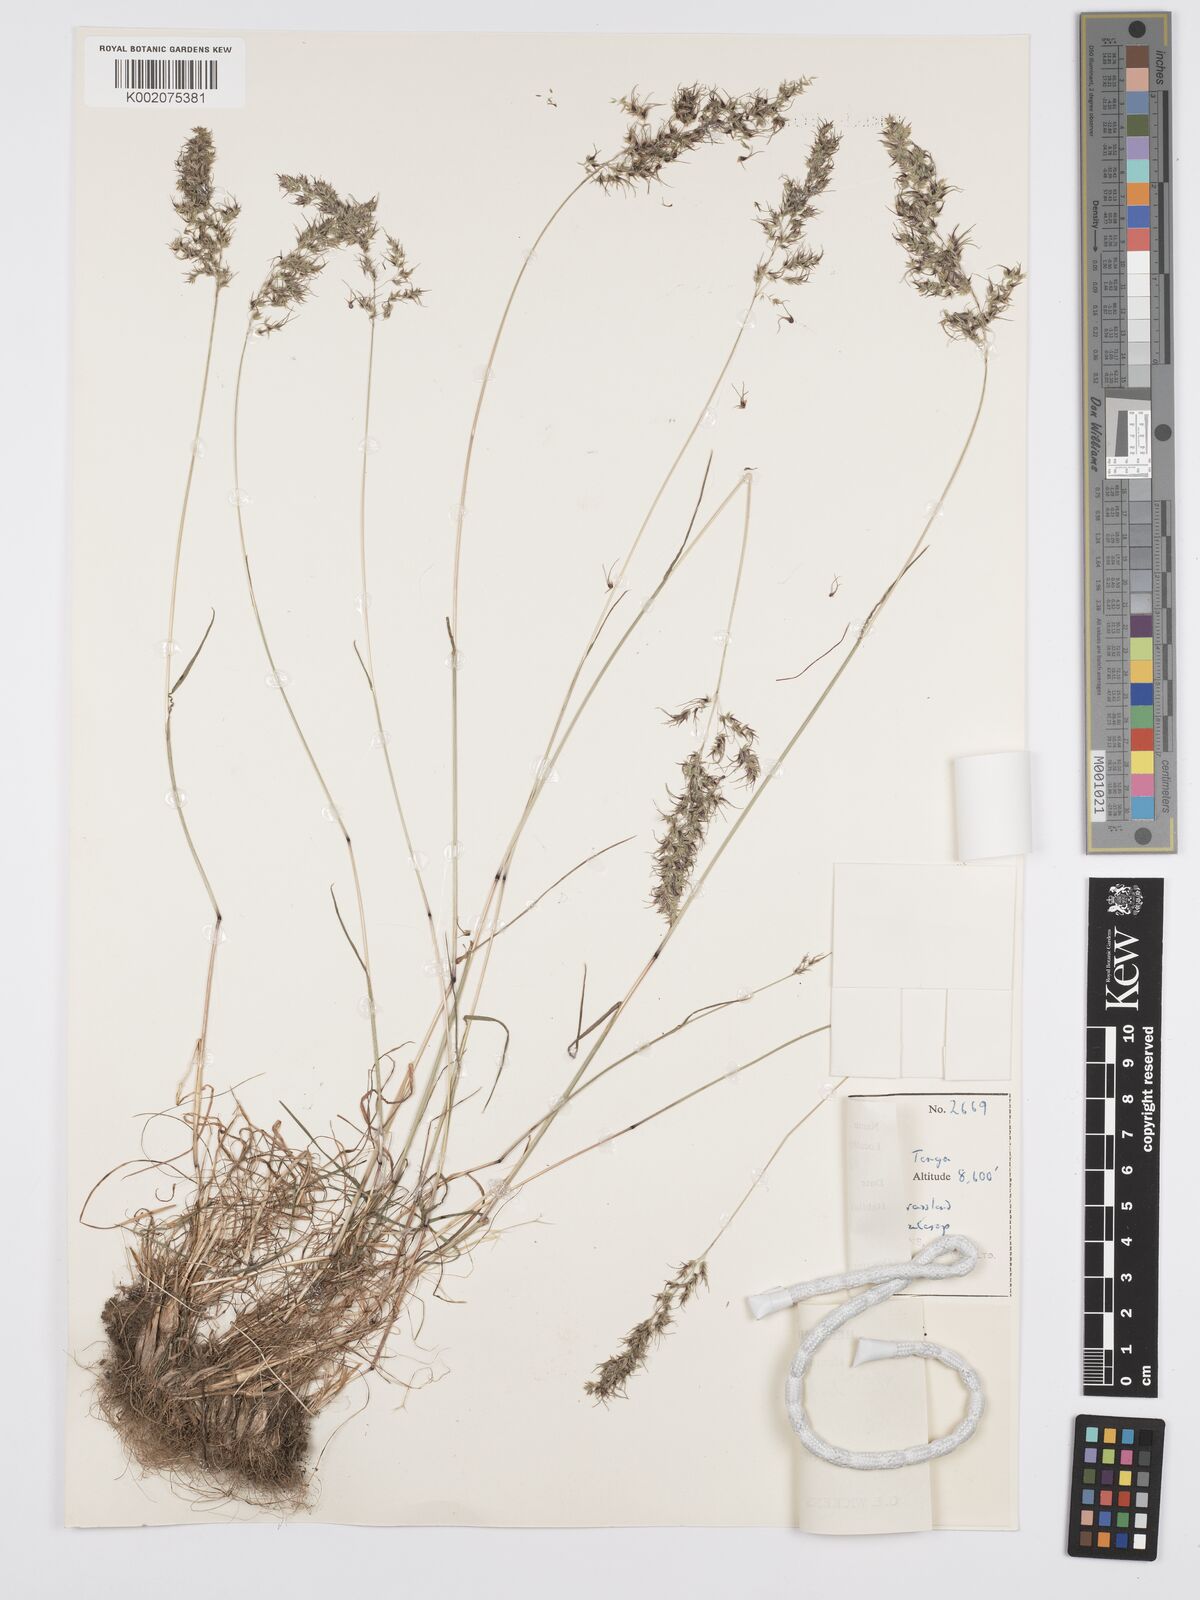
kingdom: Plantae
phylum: Tracheophyta
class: Liliopsida
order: Poales
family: Poaceae
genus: Poa
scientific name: Poa sinaica
